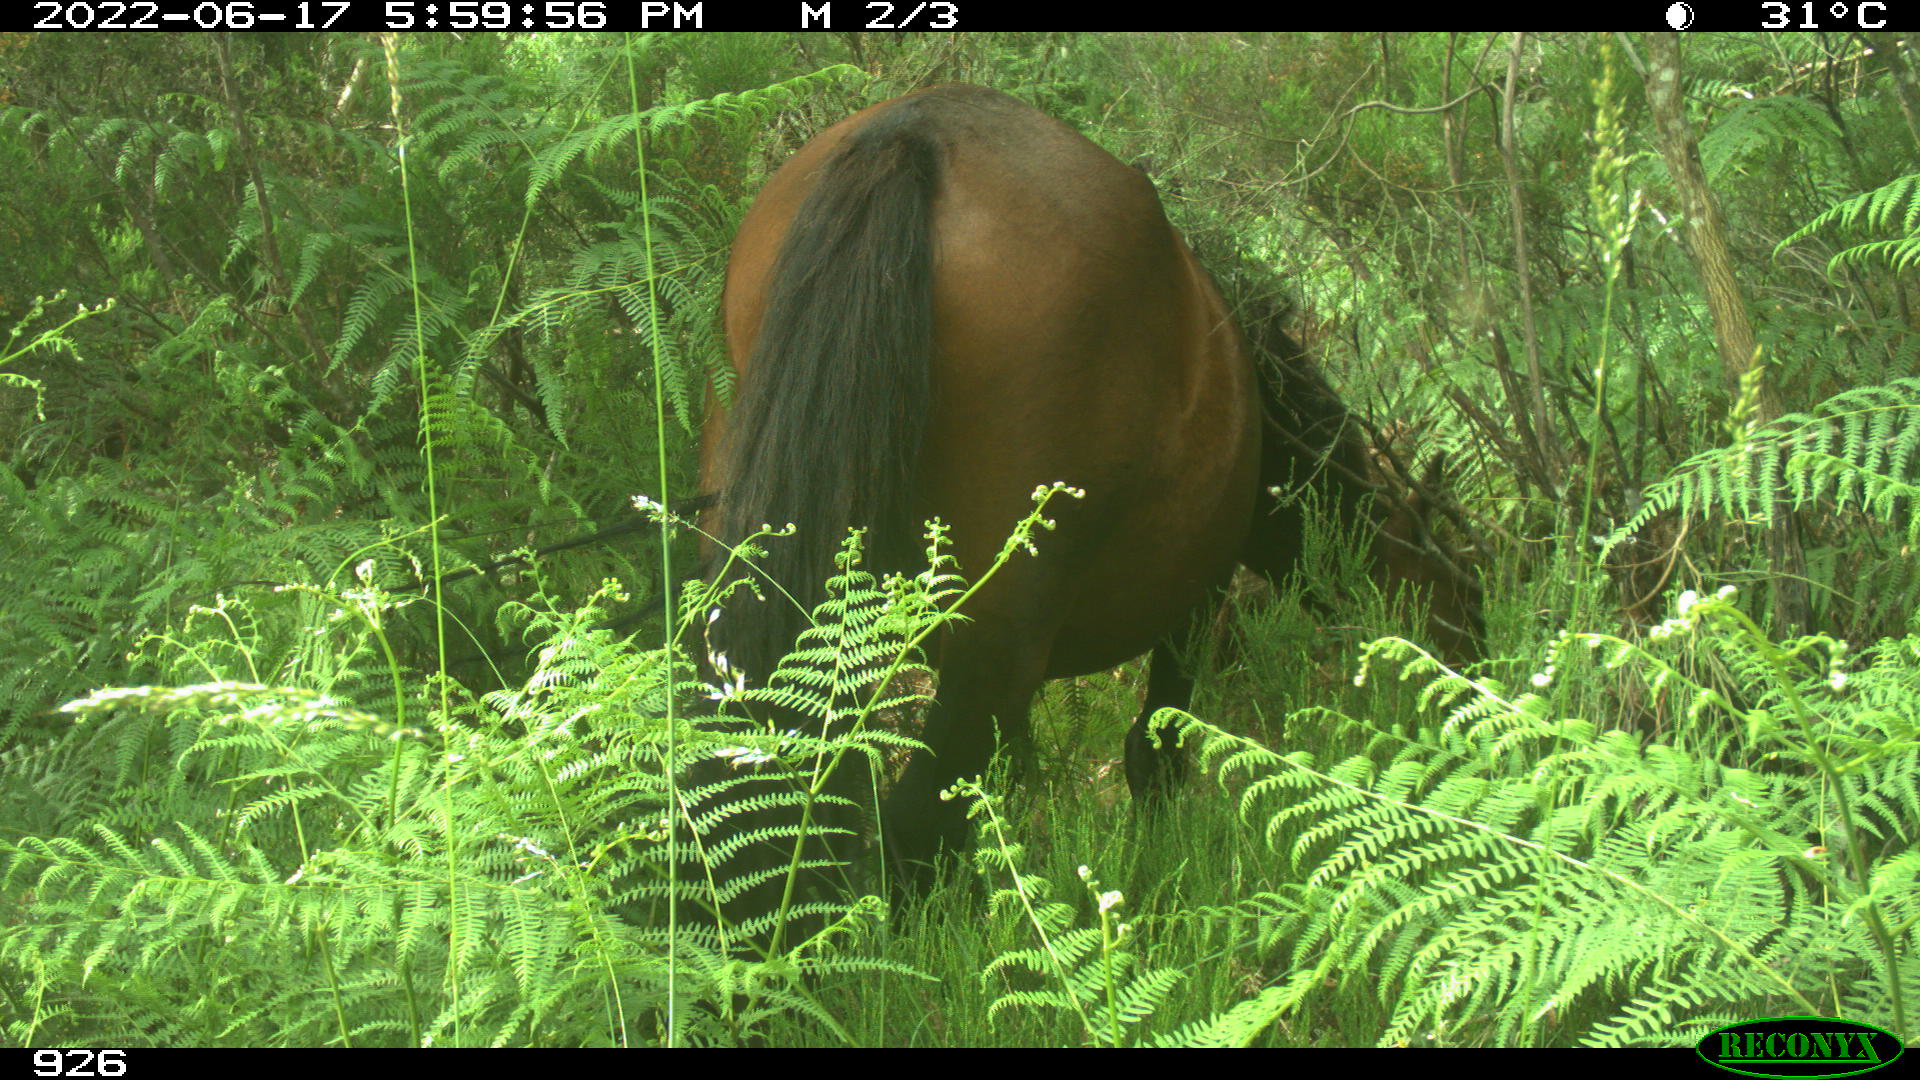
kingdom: Animalia
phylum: Chordata
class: Mammalia
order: Perissodactyla
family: Equidae
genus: Equus
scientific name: Equus caballus
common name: Horse
